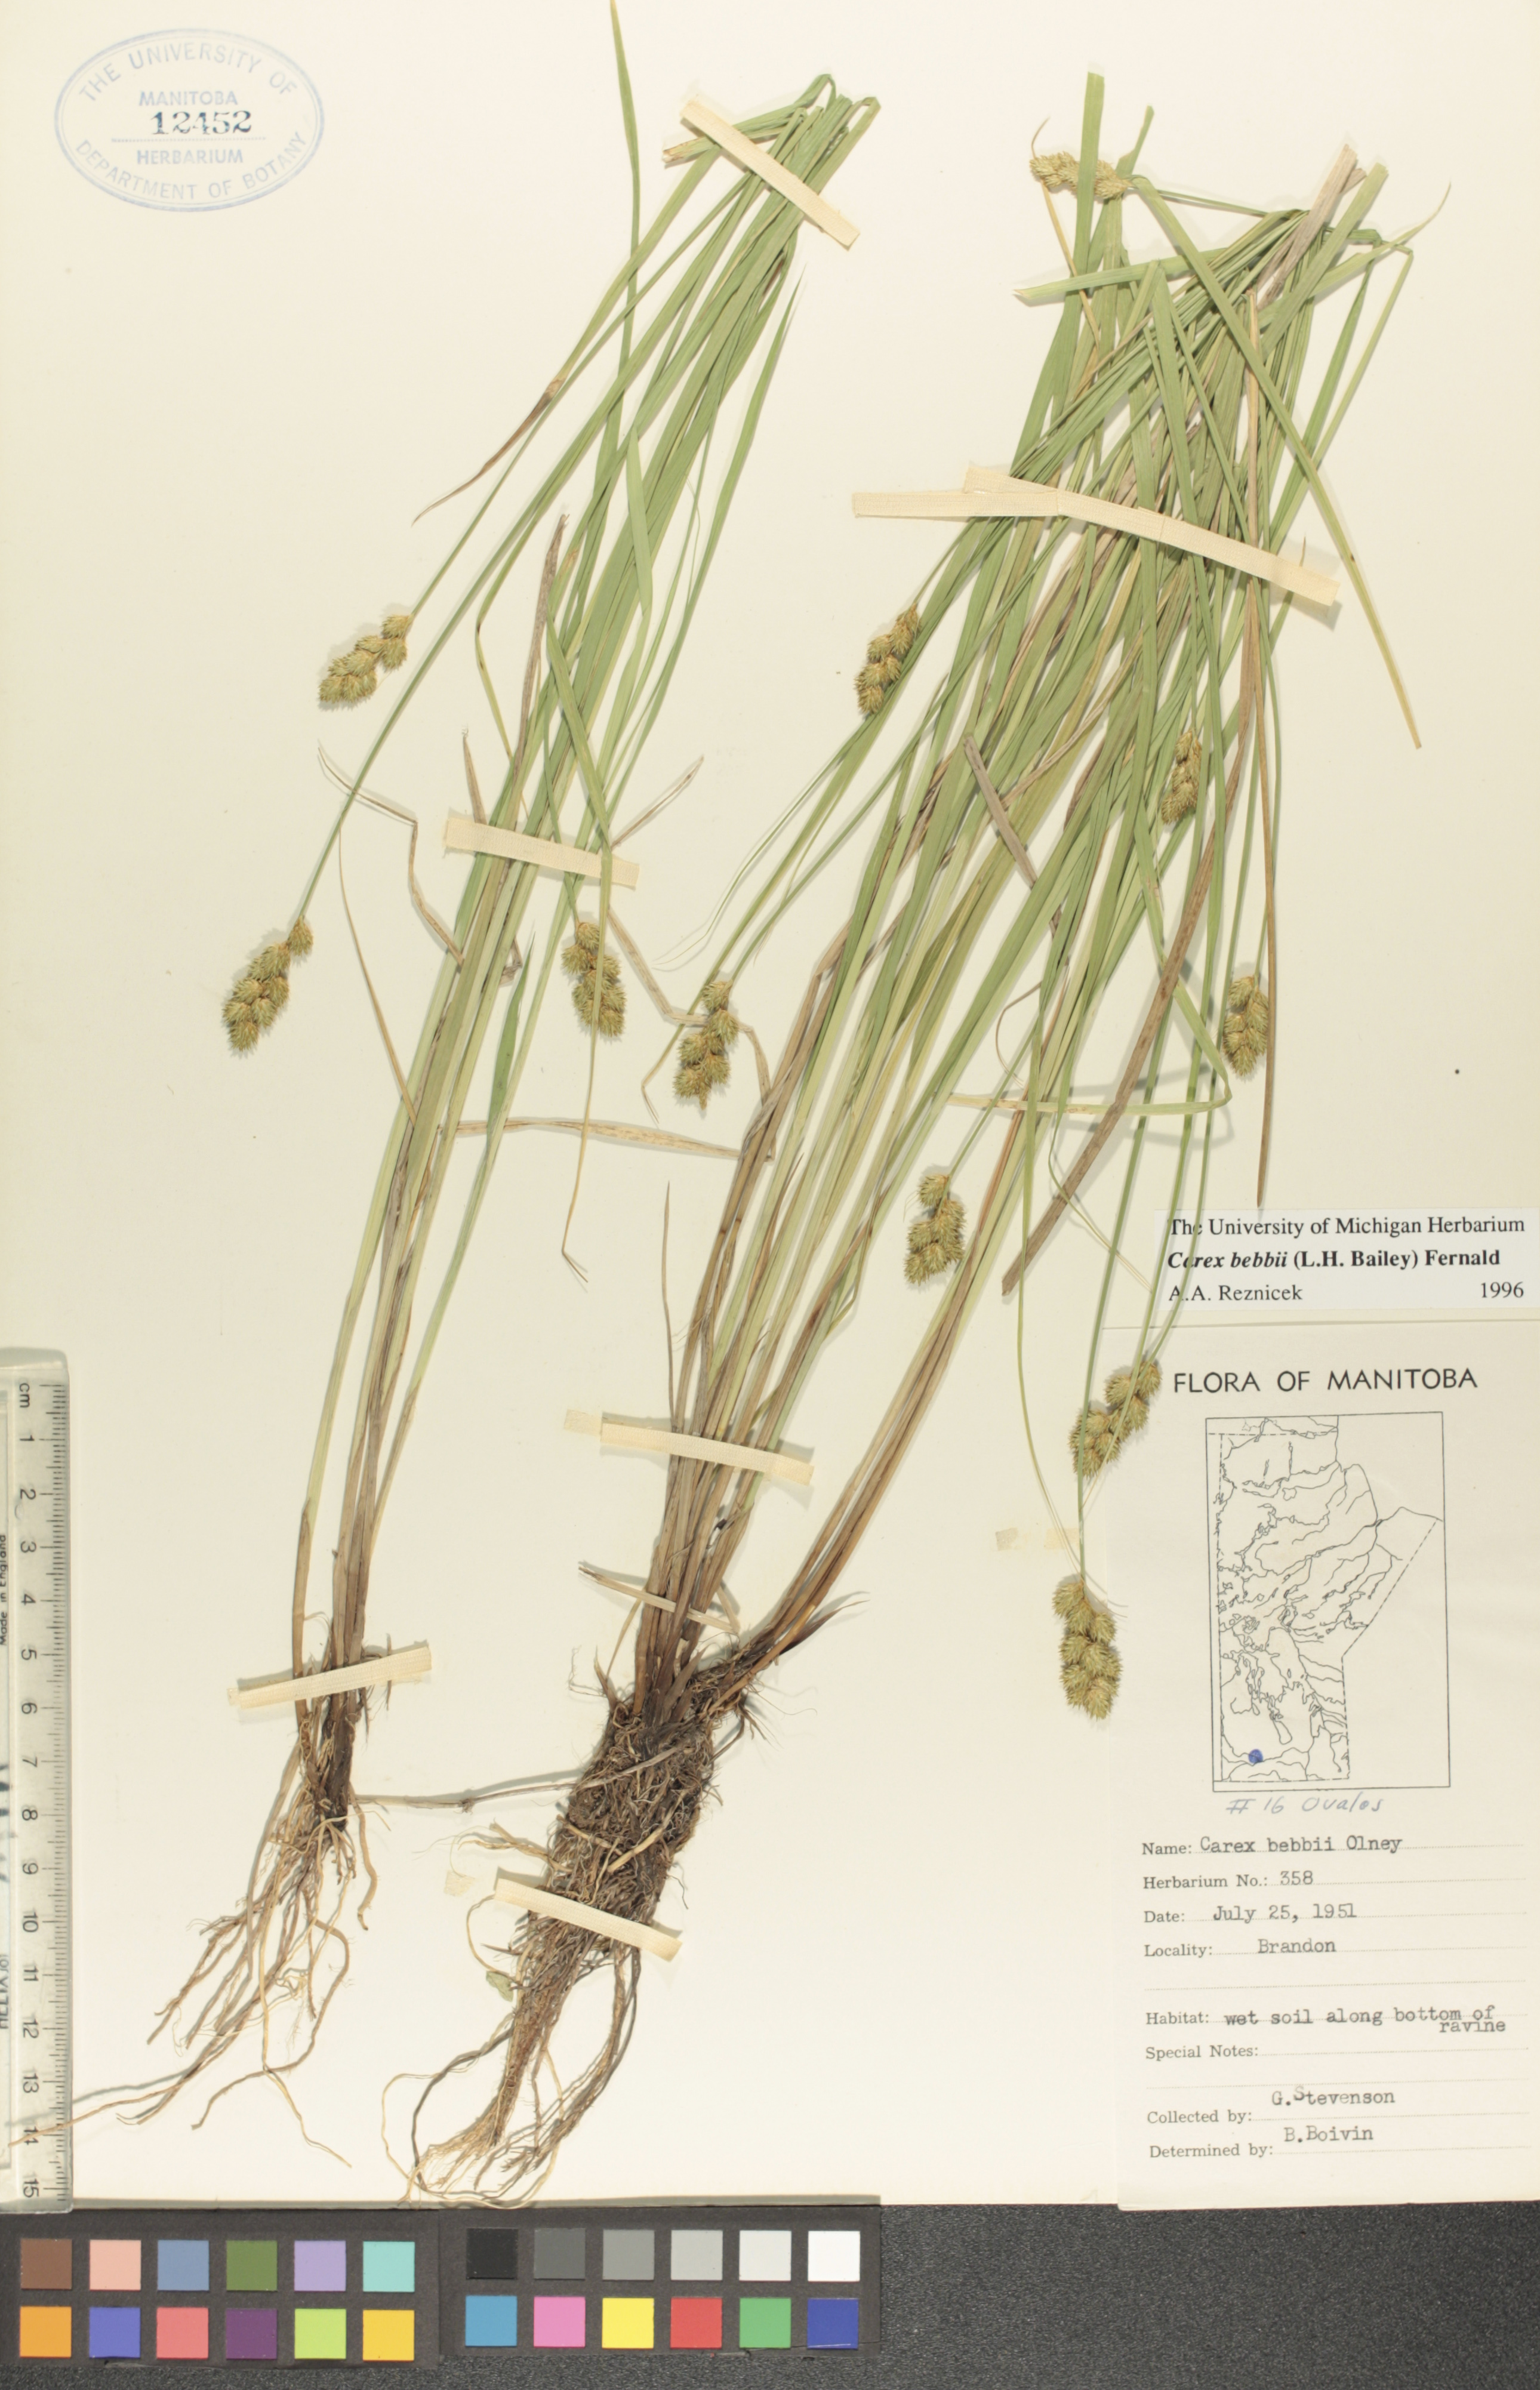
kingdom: Plantae
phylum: Tracheophyta
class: Liliopsida
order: Poales
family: Cyperaceae
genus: Carex
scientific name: Carex bebbii
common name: Bebb's sedge
